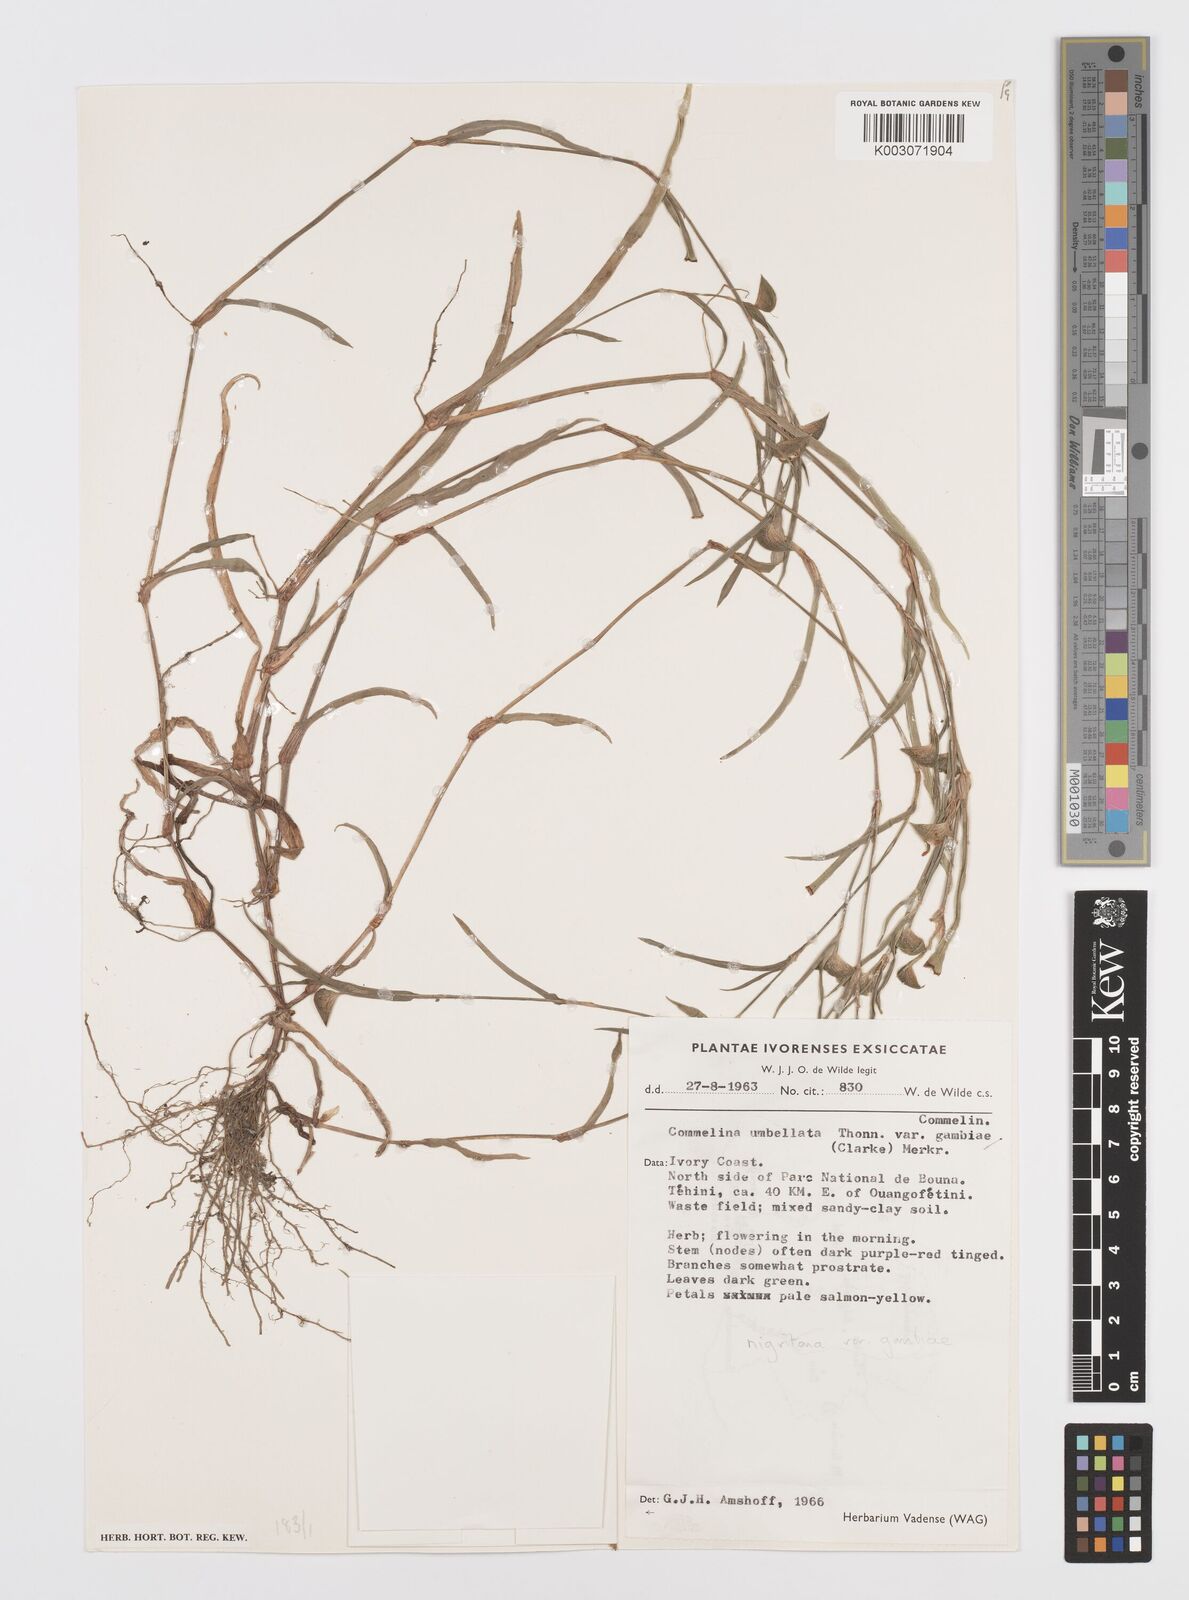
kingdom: Plantae
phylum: Tracheophyta
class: Liliopsida
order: Commelinales
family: Commelinaceae
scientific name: Commelinaceae
